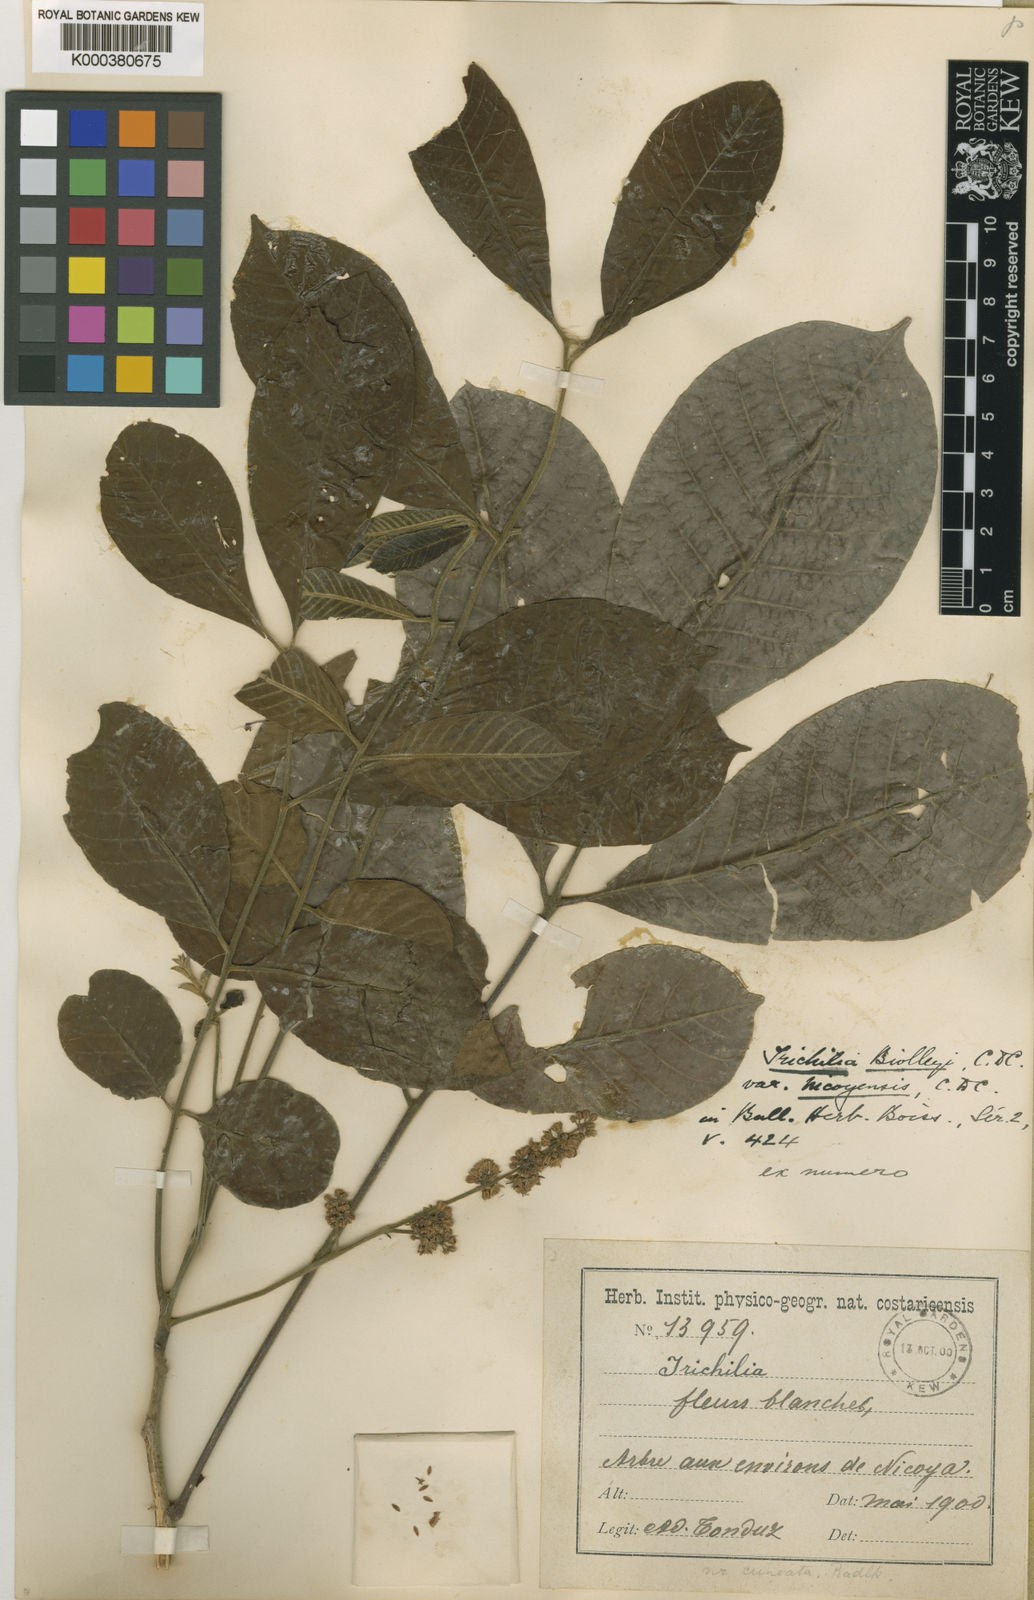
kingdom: Plantae
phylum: Tracheophyta
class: Magnoliopsida
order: Sapindales
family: Meliaceae
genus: Trichilia
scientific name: Trichilia martiana
